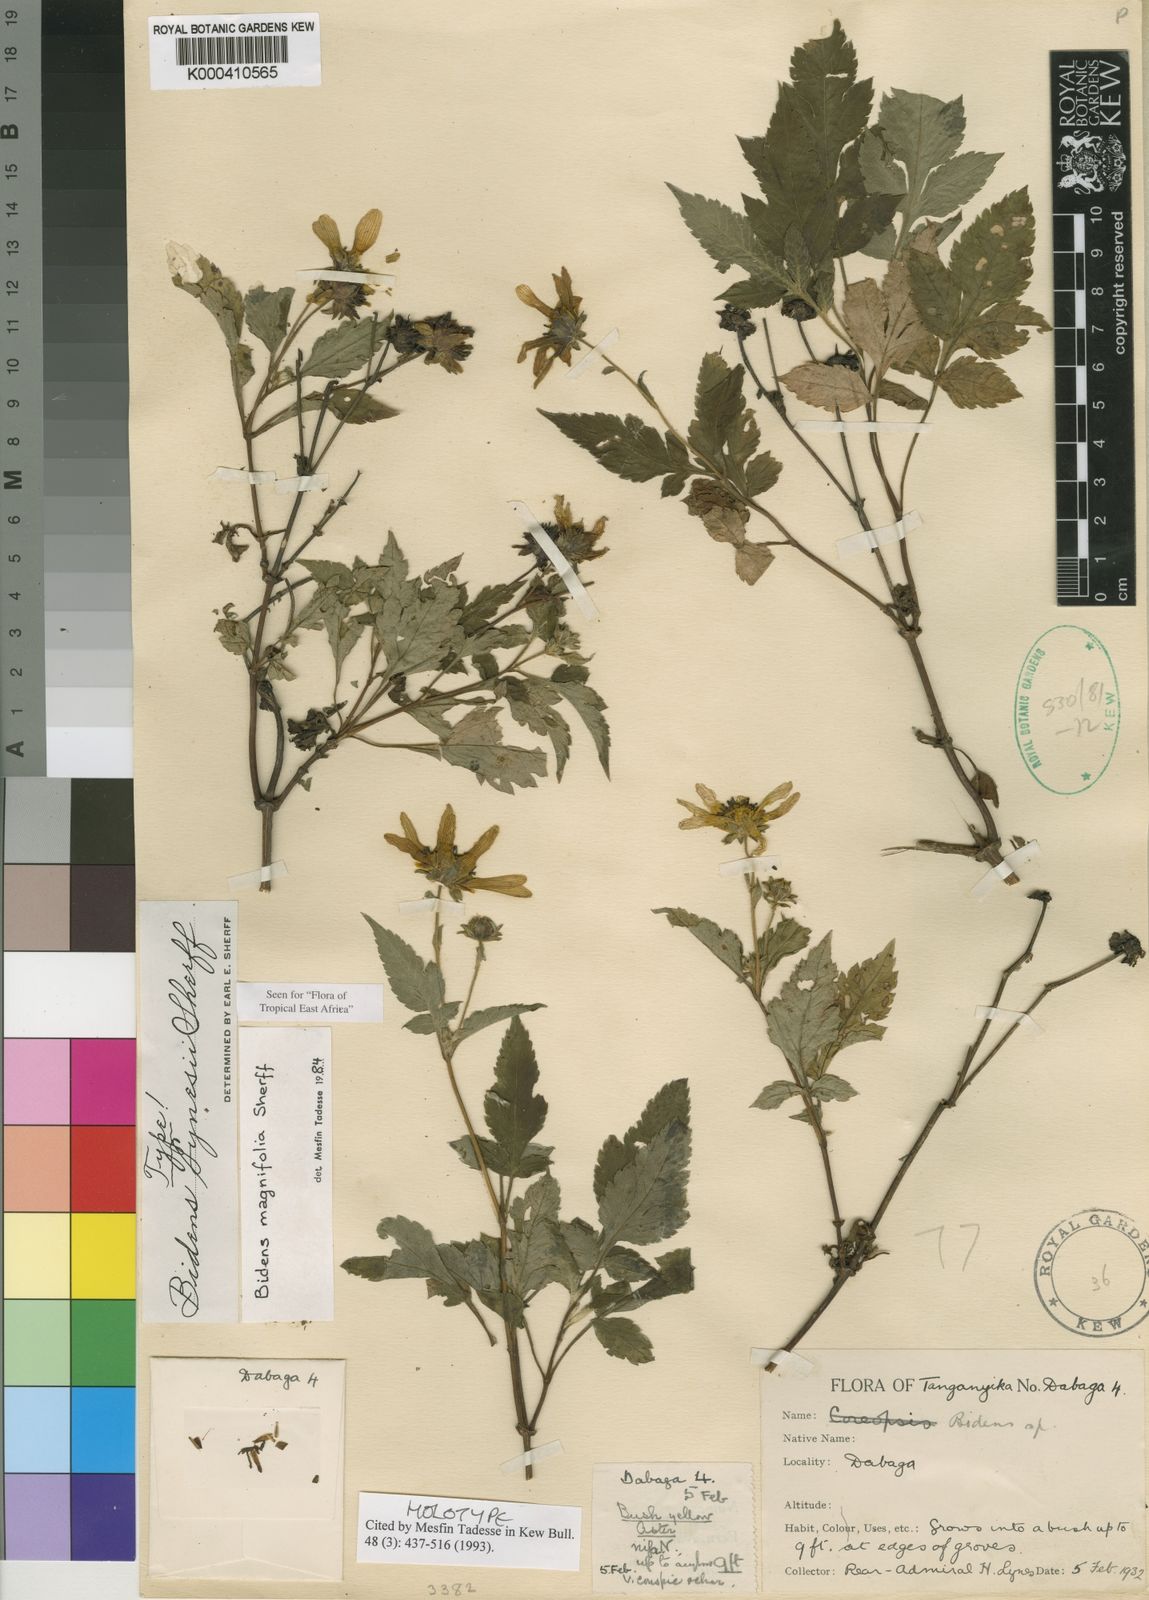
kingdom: Plantae
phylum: Tracheophyta
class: Magnoliopsida
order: Asterales
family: Asteraceae
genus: Bidens
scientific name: Bidens magnifolia
